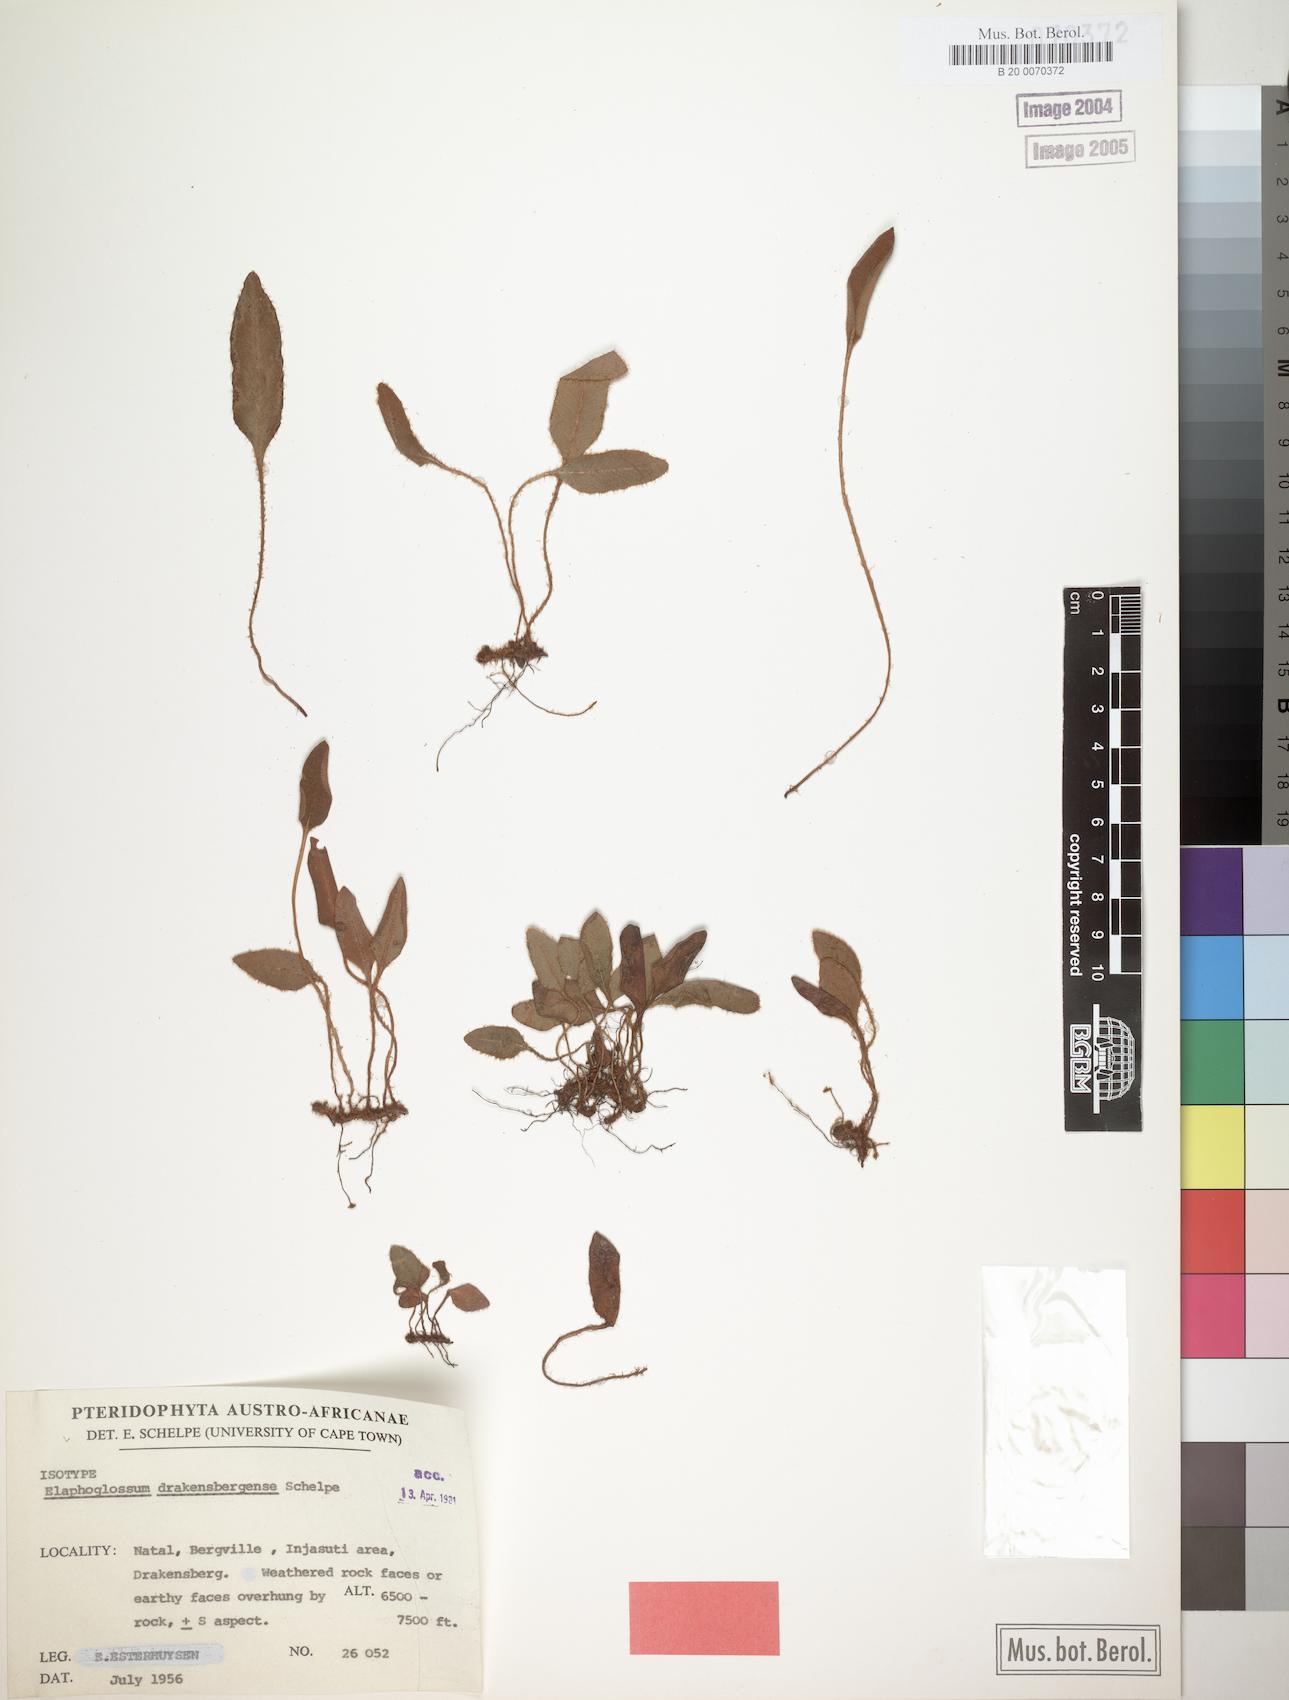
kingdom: Plantae
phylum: Tracheophyta
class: Polypodiopsida
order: Polypodiales
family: Dryopteridaceae
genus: Elaphoglossum
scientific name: Elaphoglossum drakensbergense
